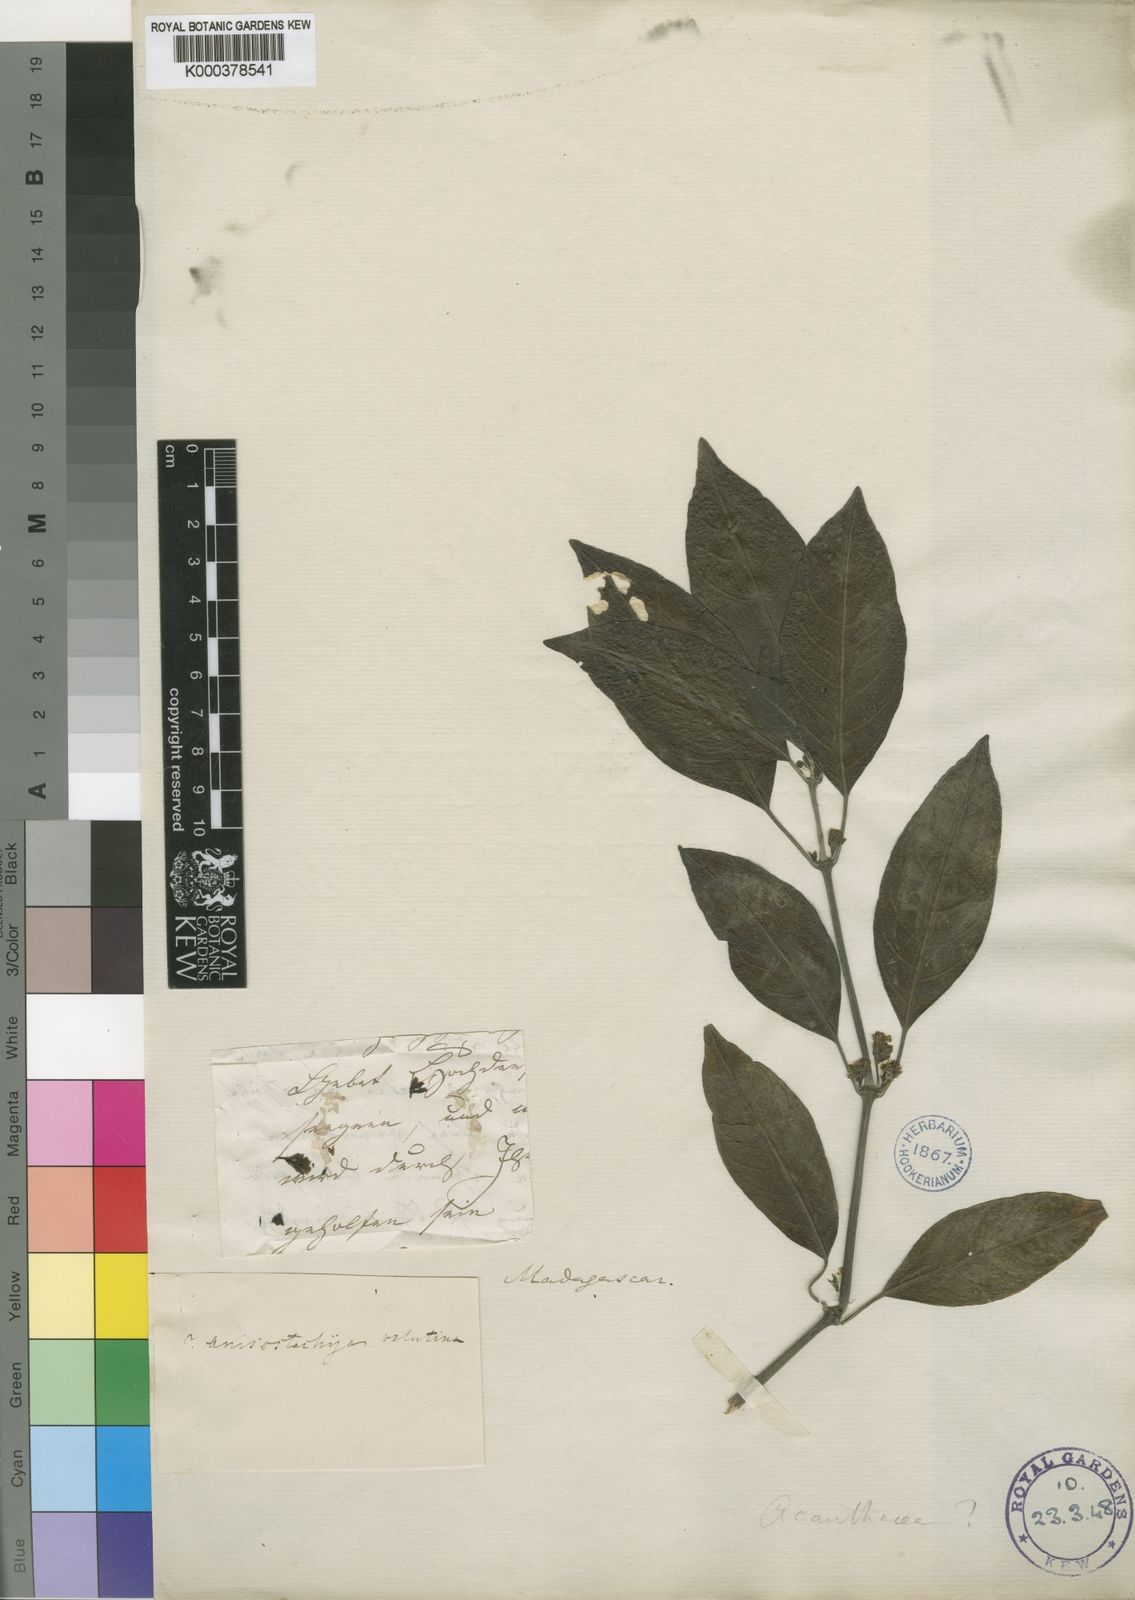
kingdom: Plantae
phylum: Tracheophyta
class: Magnoliopsida
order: Lamiales
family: Acanthaceae
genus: Justicia
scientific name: Justicia
